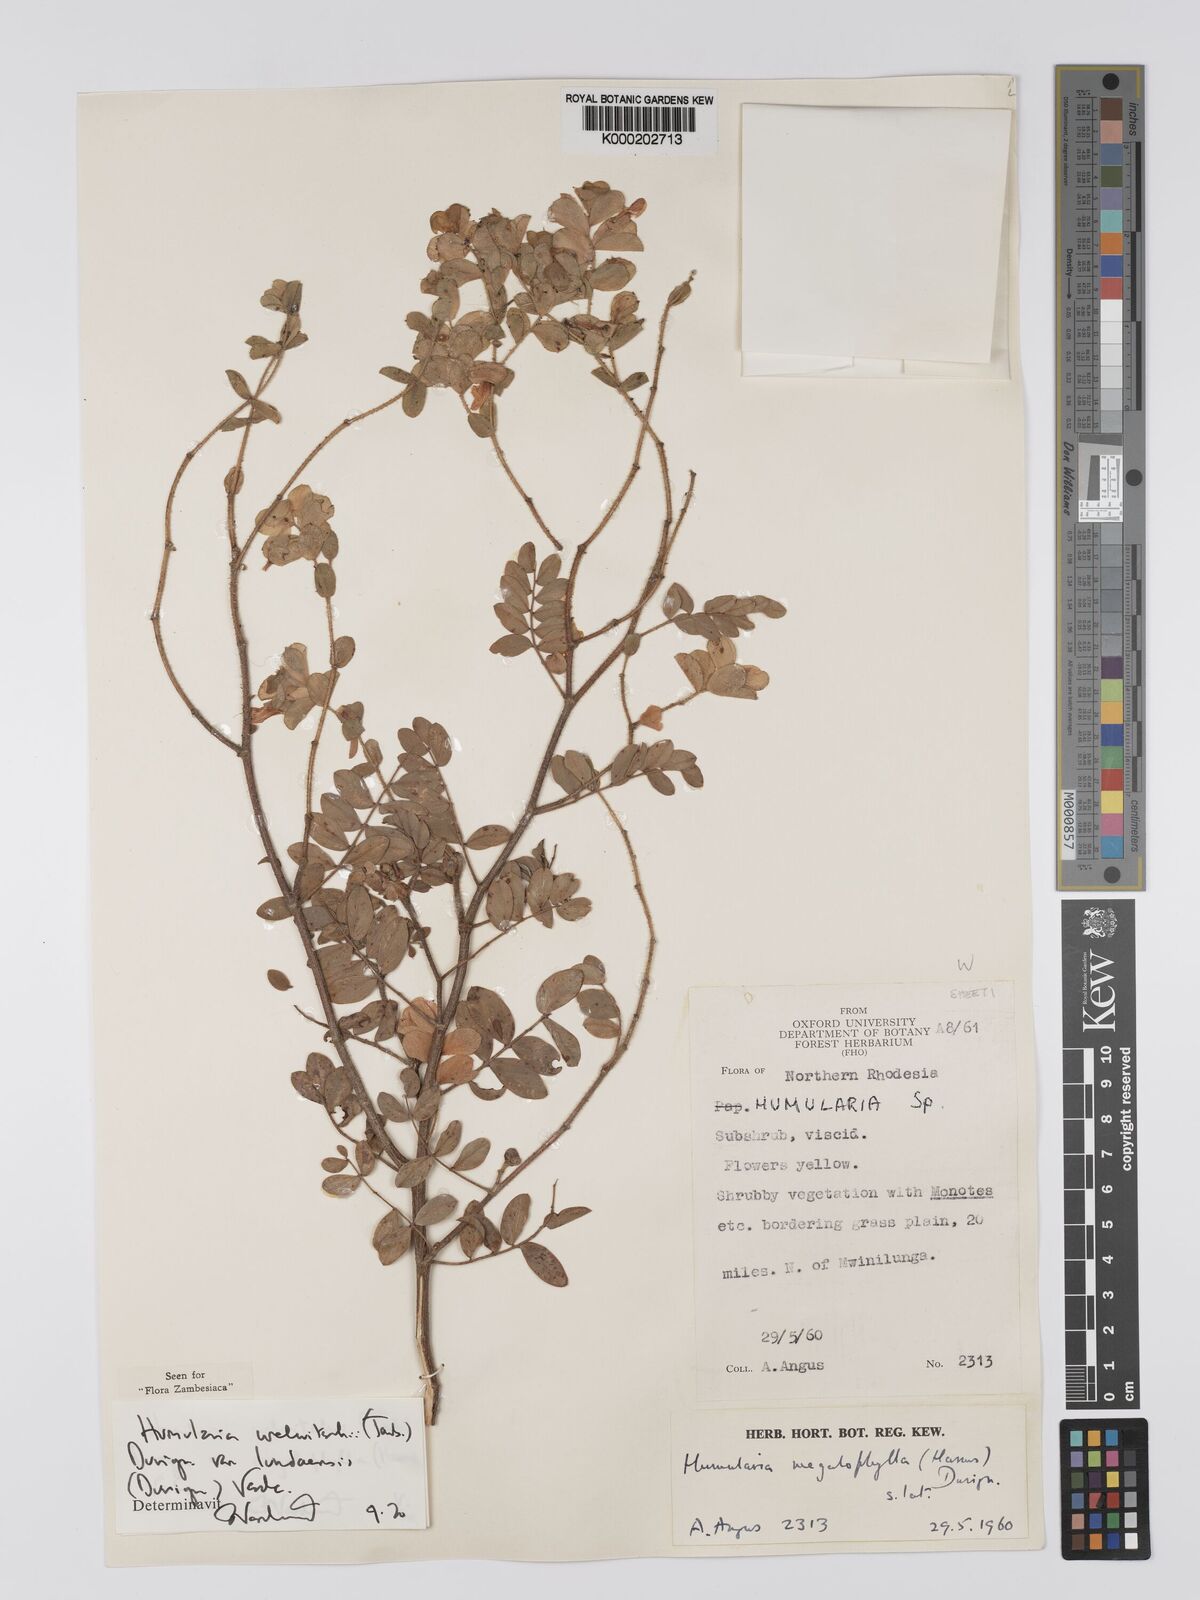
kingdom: Plantae
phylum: Tracheophyta
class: Magnoliopsida
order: Fabales
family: Fabaceae
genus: Humularia
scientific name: Humularia welwitschii
